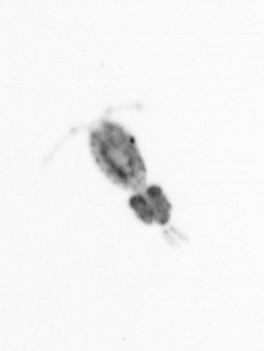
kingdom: Animalia
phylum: Arthropoda
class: Copepoda
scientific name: Copepoda
